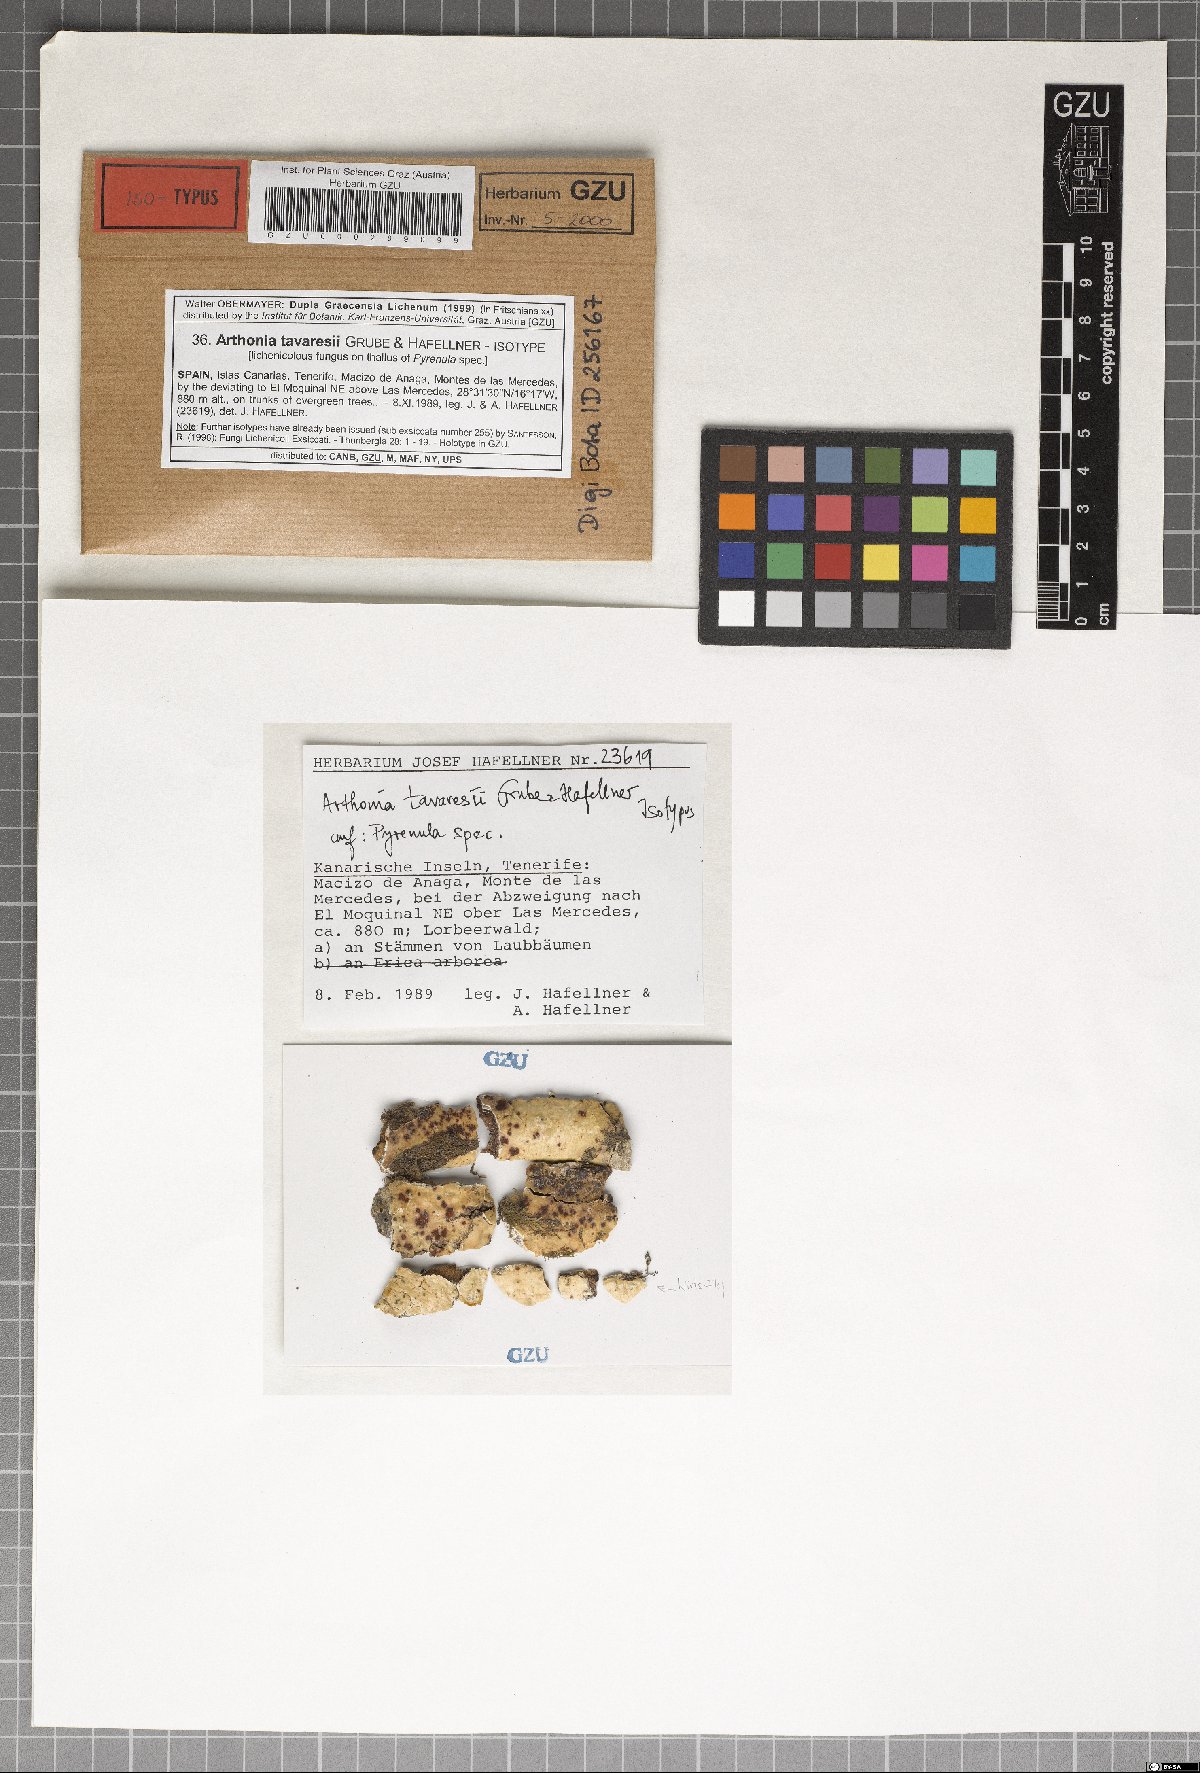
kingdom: Plantae
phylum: Marchantiophyta
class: Jungermanniopsida
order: Jungermanniales
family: Cephaloziaceae
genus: Odontoschisma
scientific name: Odontoschisma
